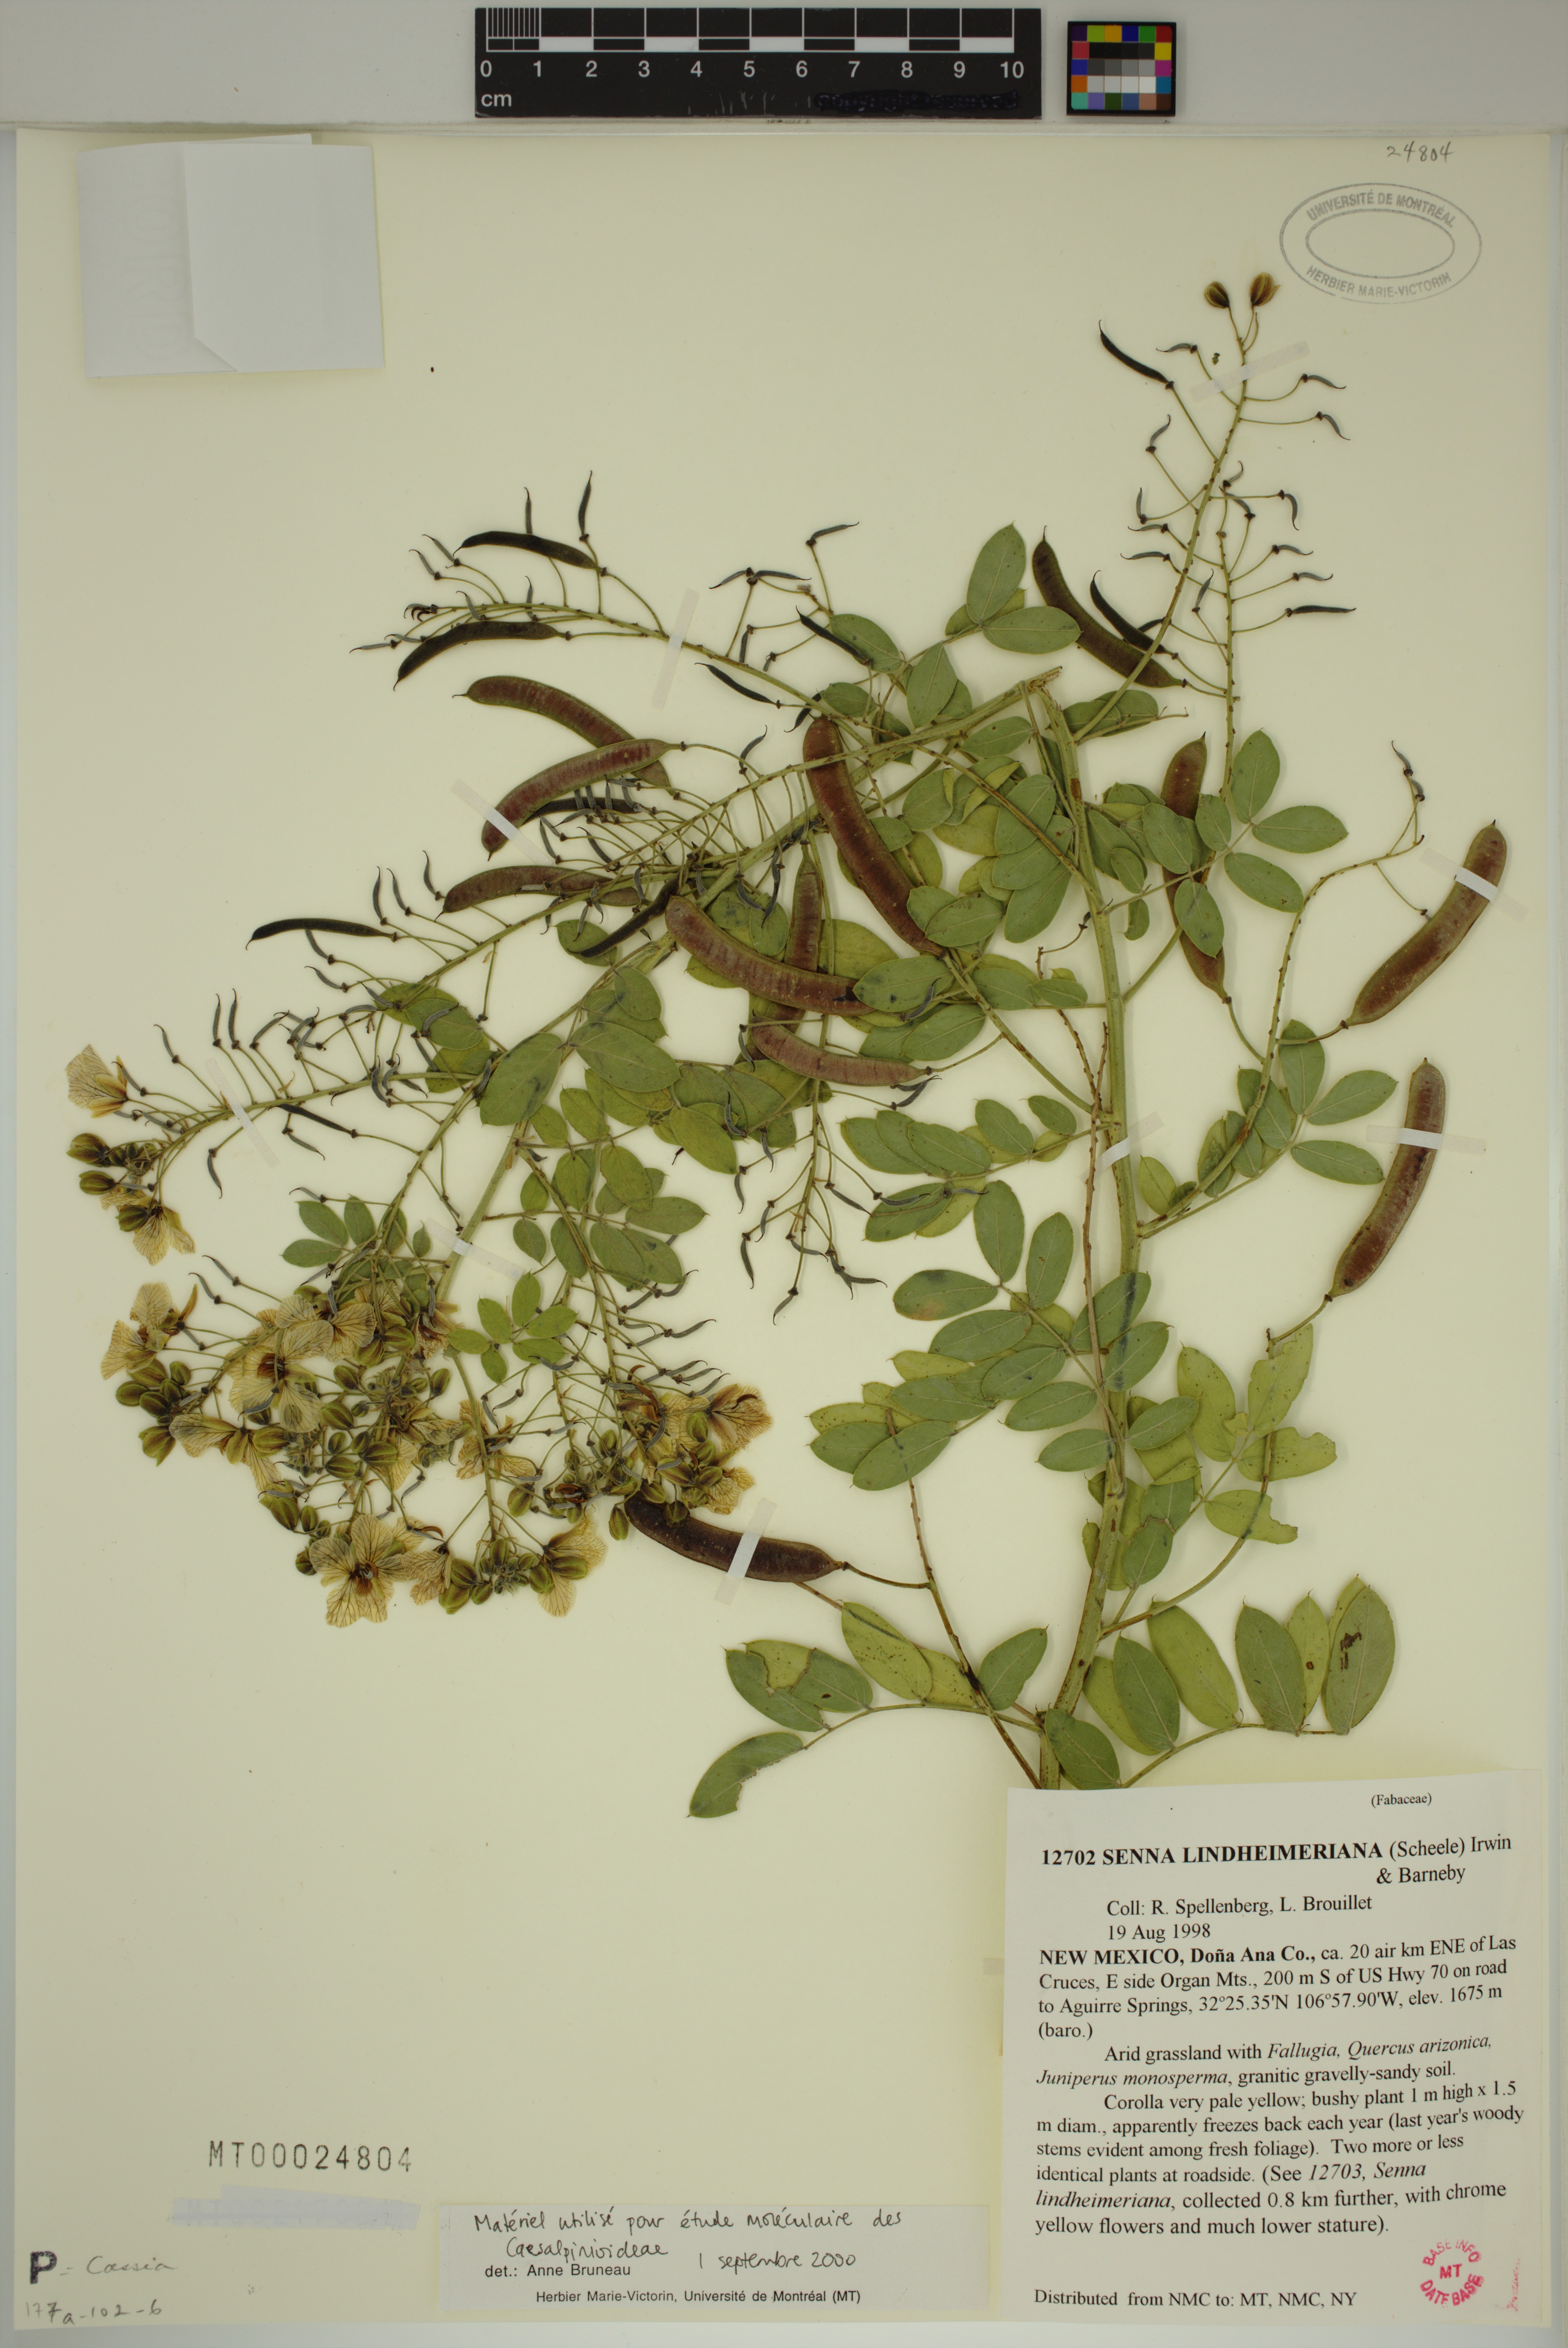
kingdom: Plantae
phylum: Tracheophyta
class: Magnoliopsida
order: Fabales
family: Fabaceae
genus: Senna
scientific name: Senna lindheimeriana
